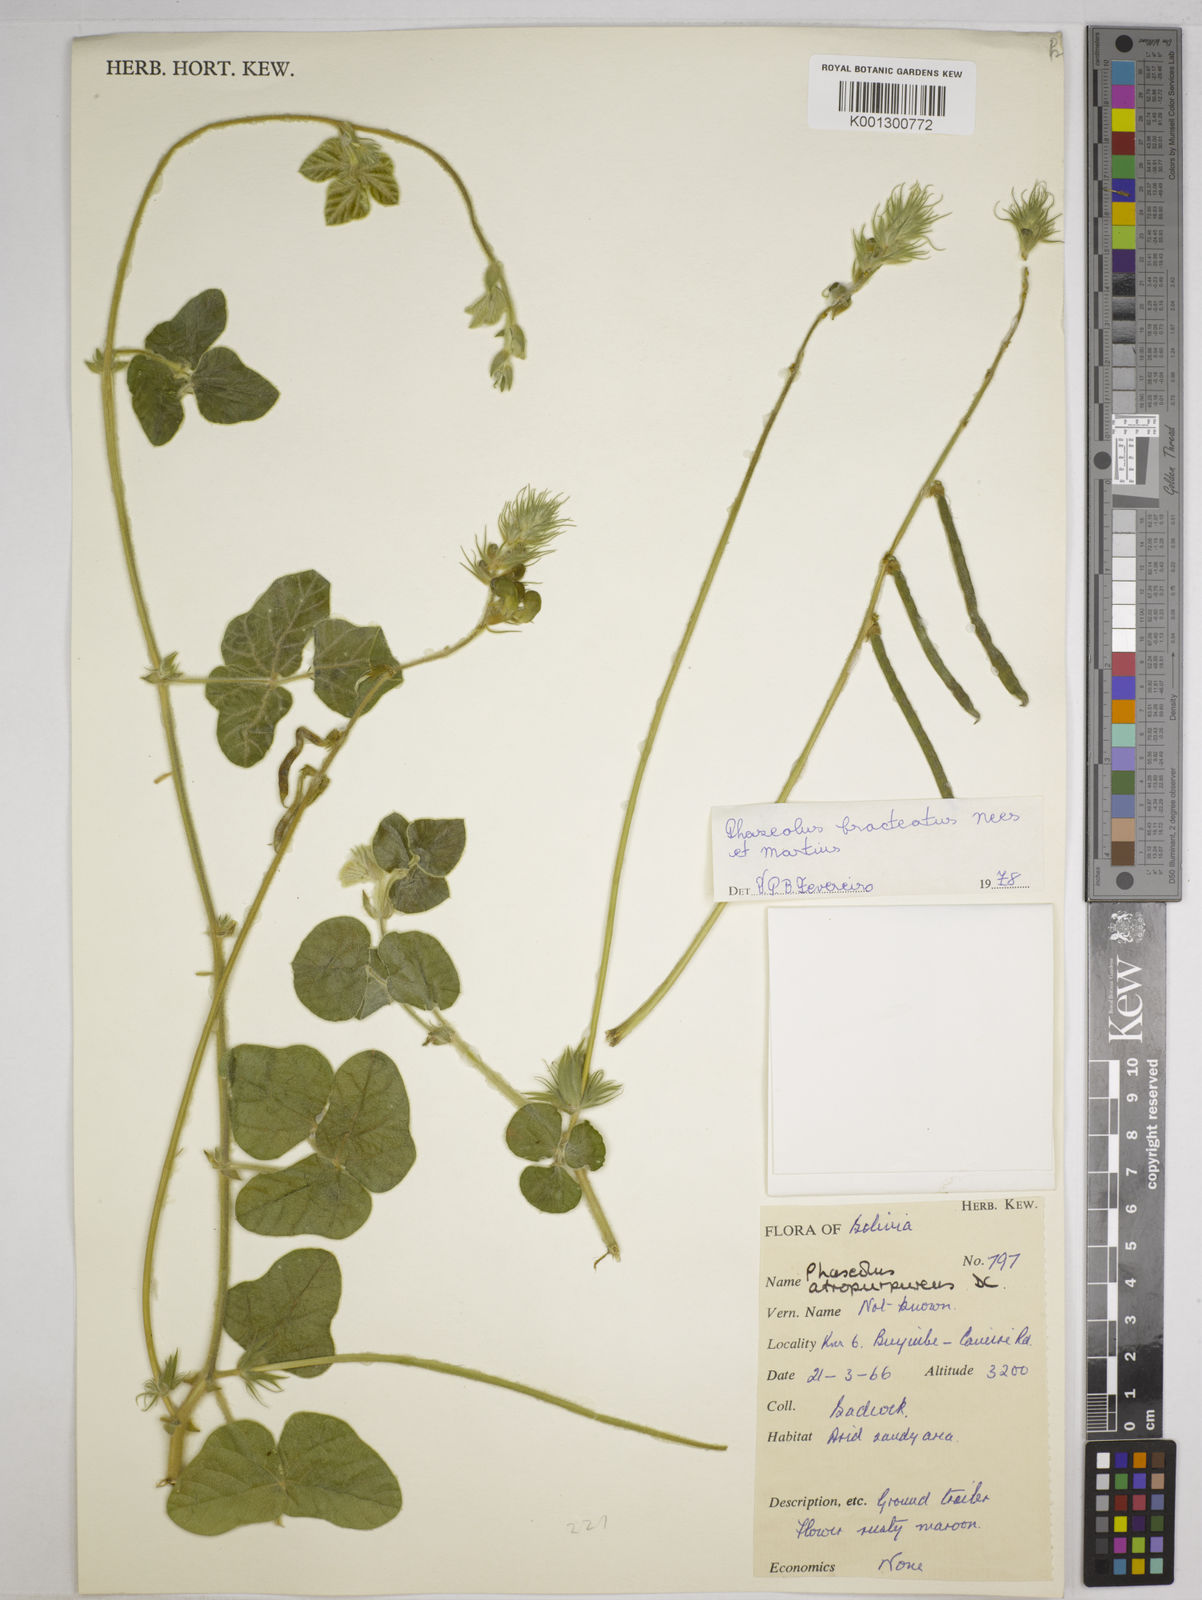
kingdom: Plantae
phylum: Tracheophyta
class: Magnoliopsida
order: Fabales
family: Fabaceae
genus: Macroptilium
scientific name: Macroptilium bracteatum
